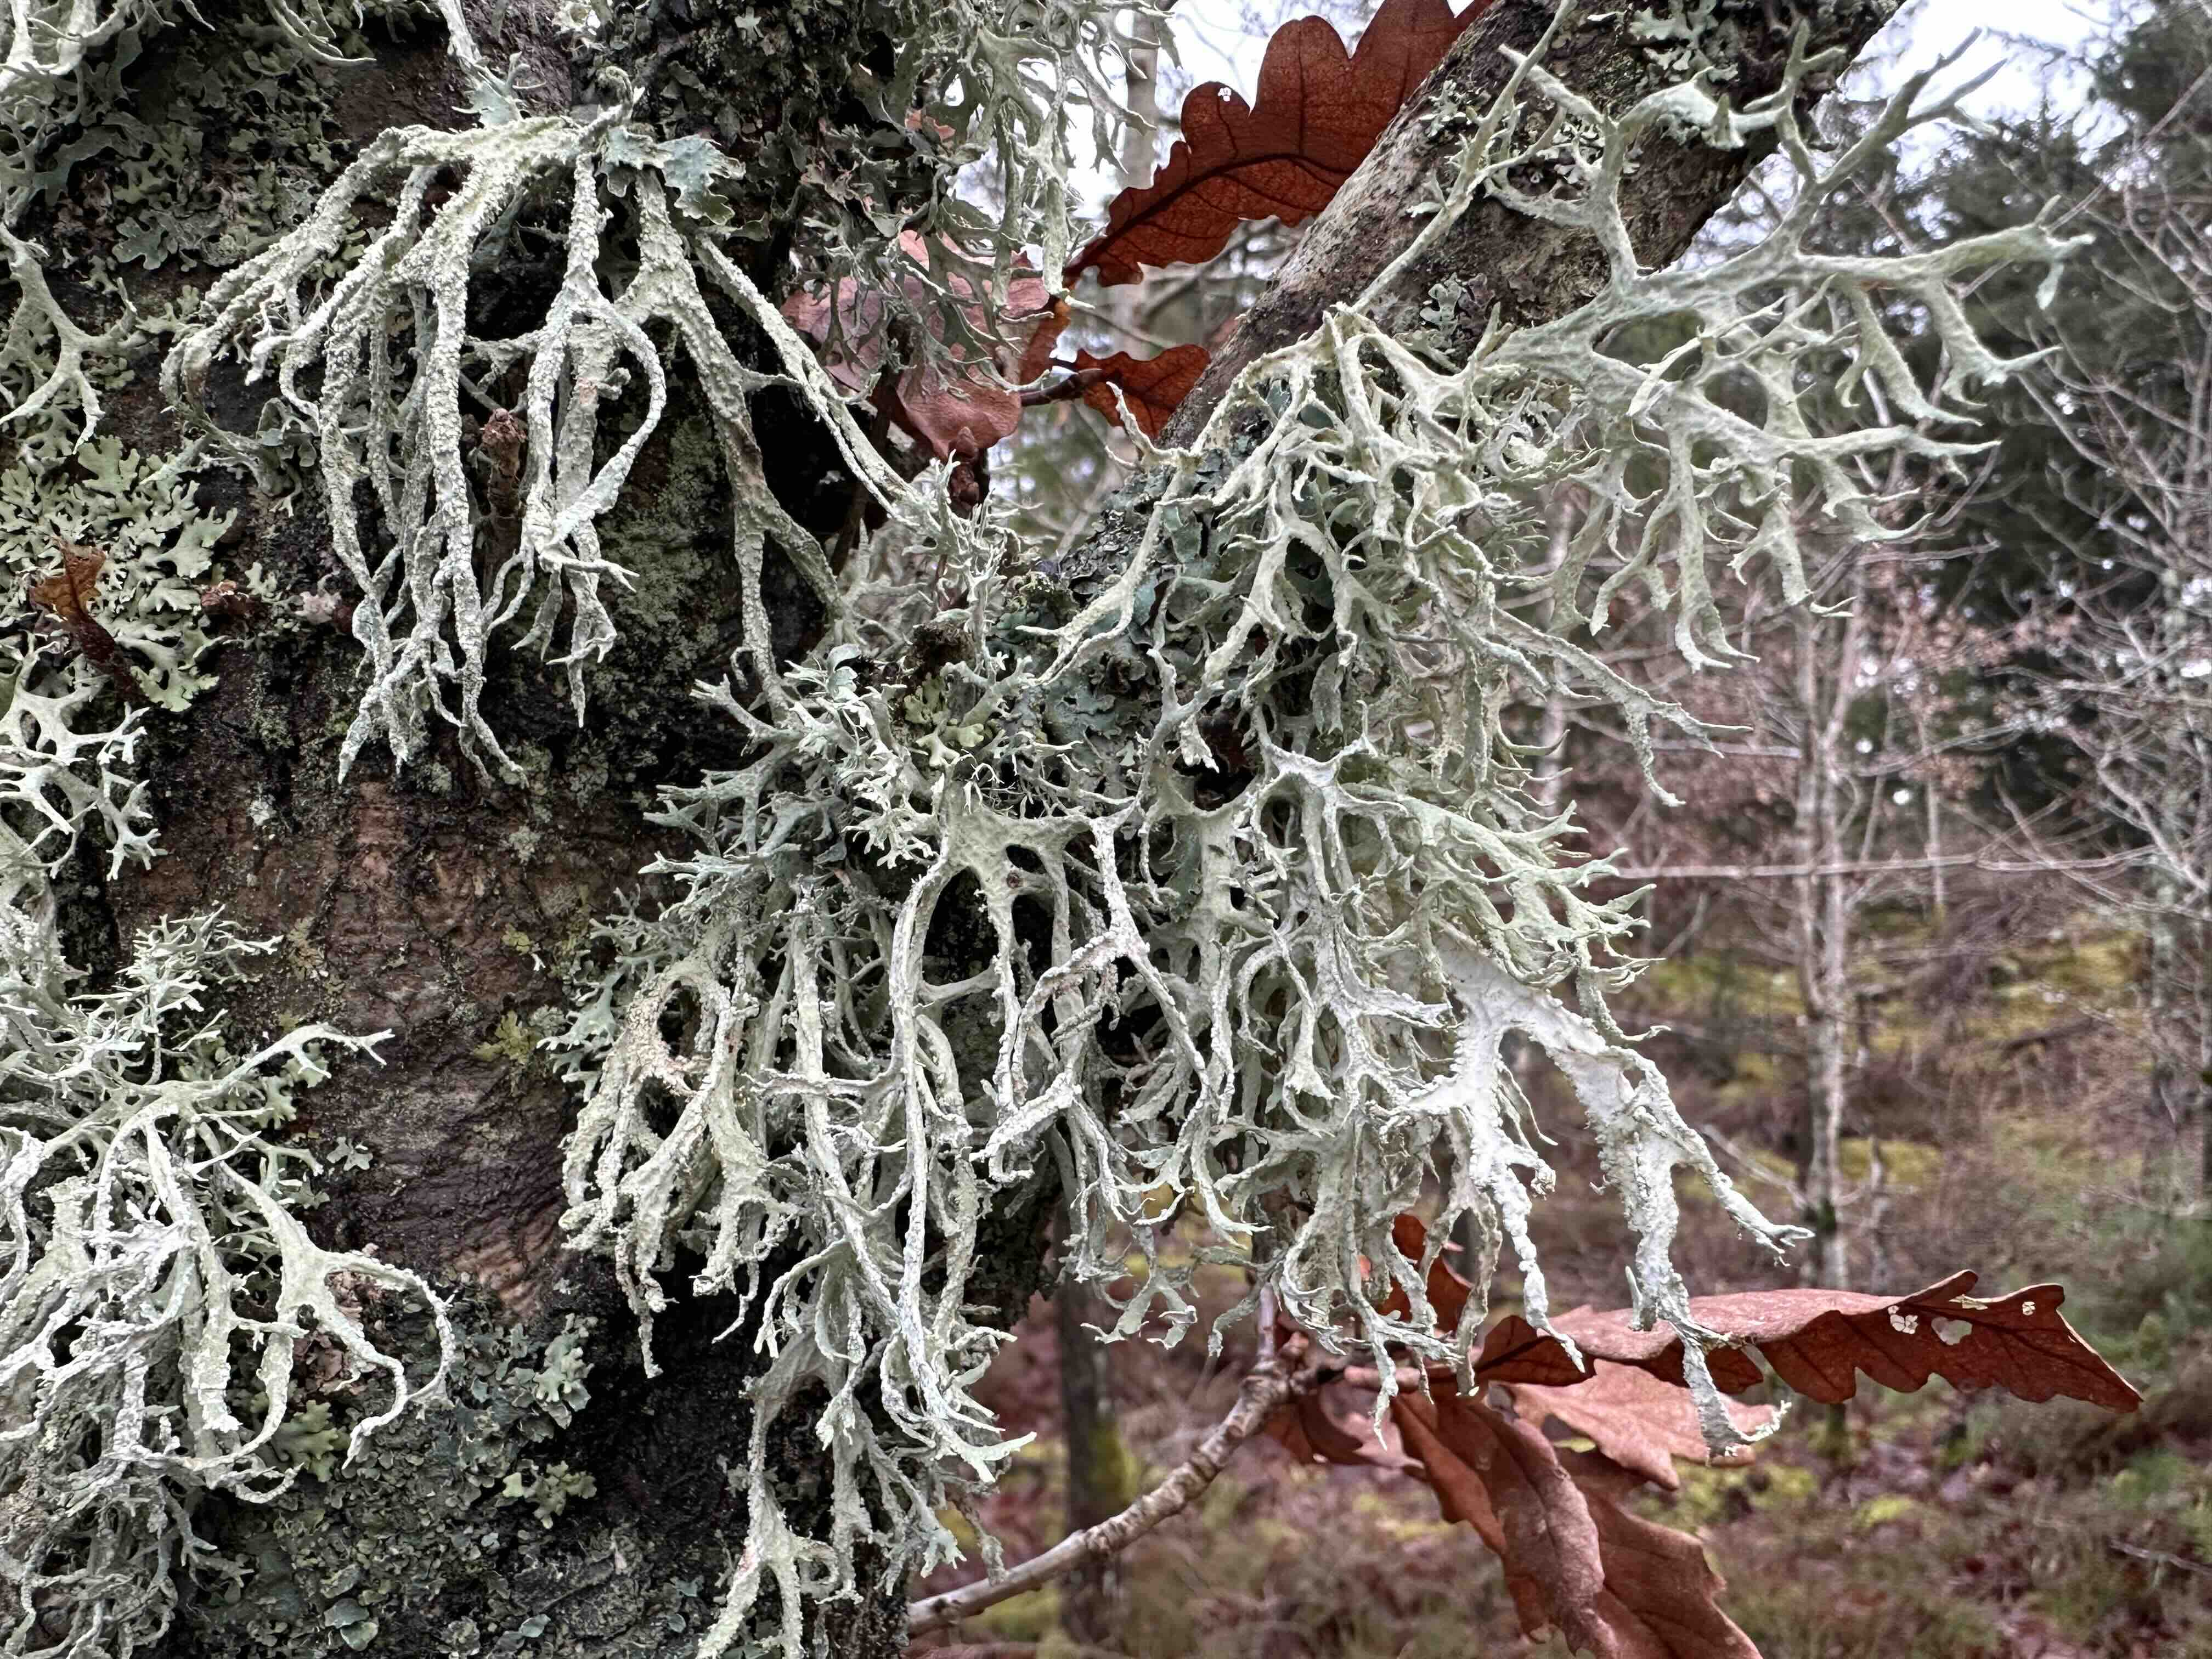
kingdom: Fungi
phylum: Ascomycota
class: Lecanoromycetes
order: Lecanorales
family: Parmeliaceae
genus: Evernia
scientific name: Evernia prunastri
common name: almindelig slåenlav
